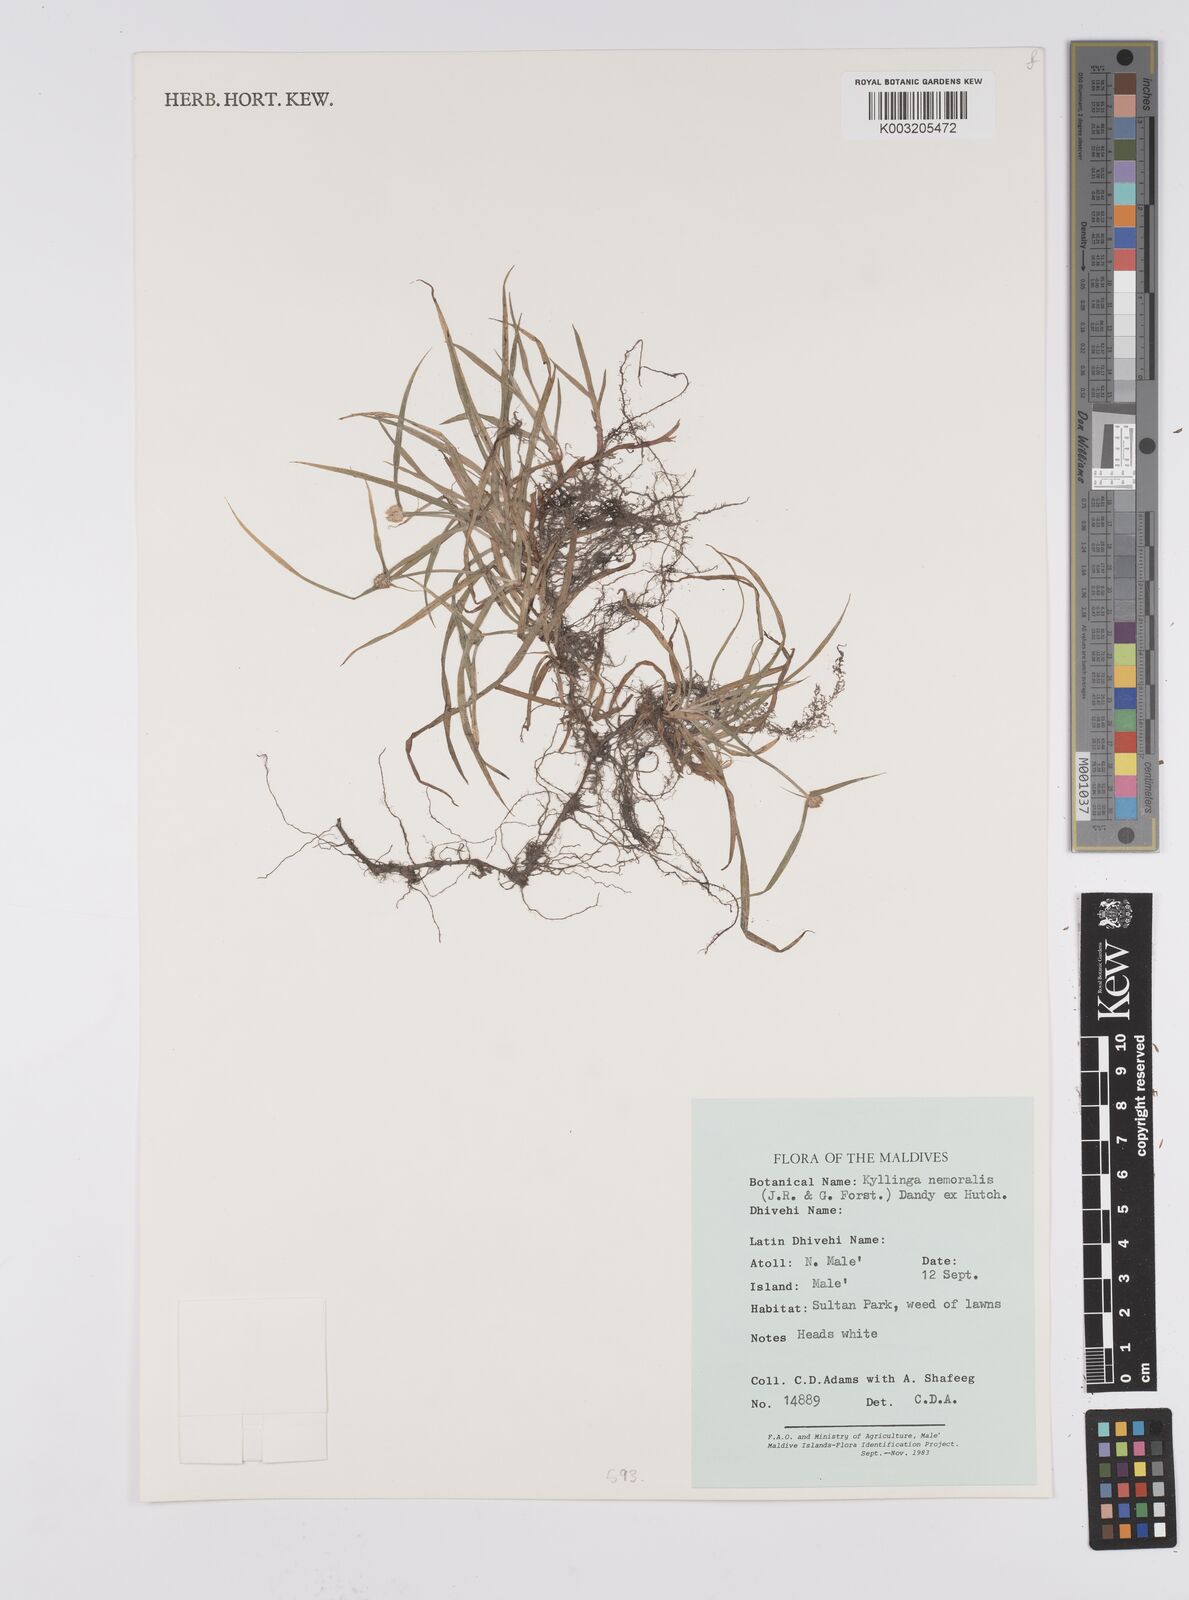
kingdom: Plantae
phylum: Tracheophyta
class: Liliopsida
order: Poales
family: Cyperaceae
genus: Cyperus
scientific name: Cyperus nemoralis
